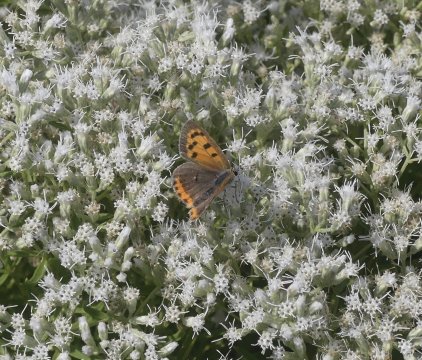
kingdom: Animalia
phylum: Arthropoda
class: Insecta
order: Lepidoptera
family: Lycaenidae
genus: Lycaena
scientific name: Lycaena phlaeas
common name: American Copper
